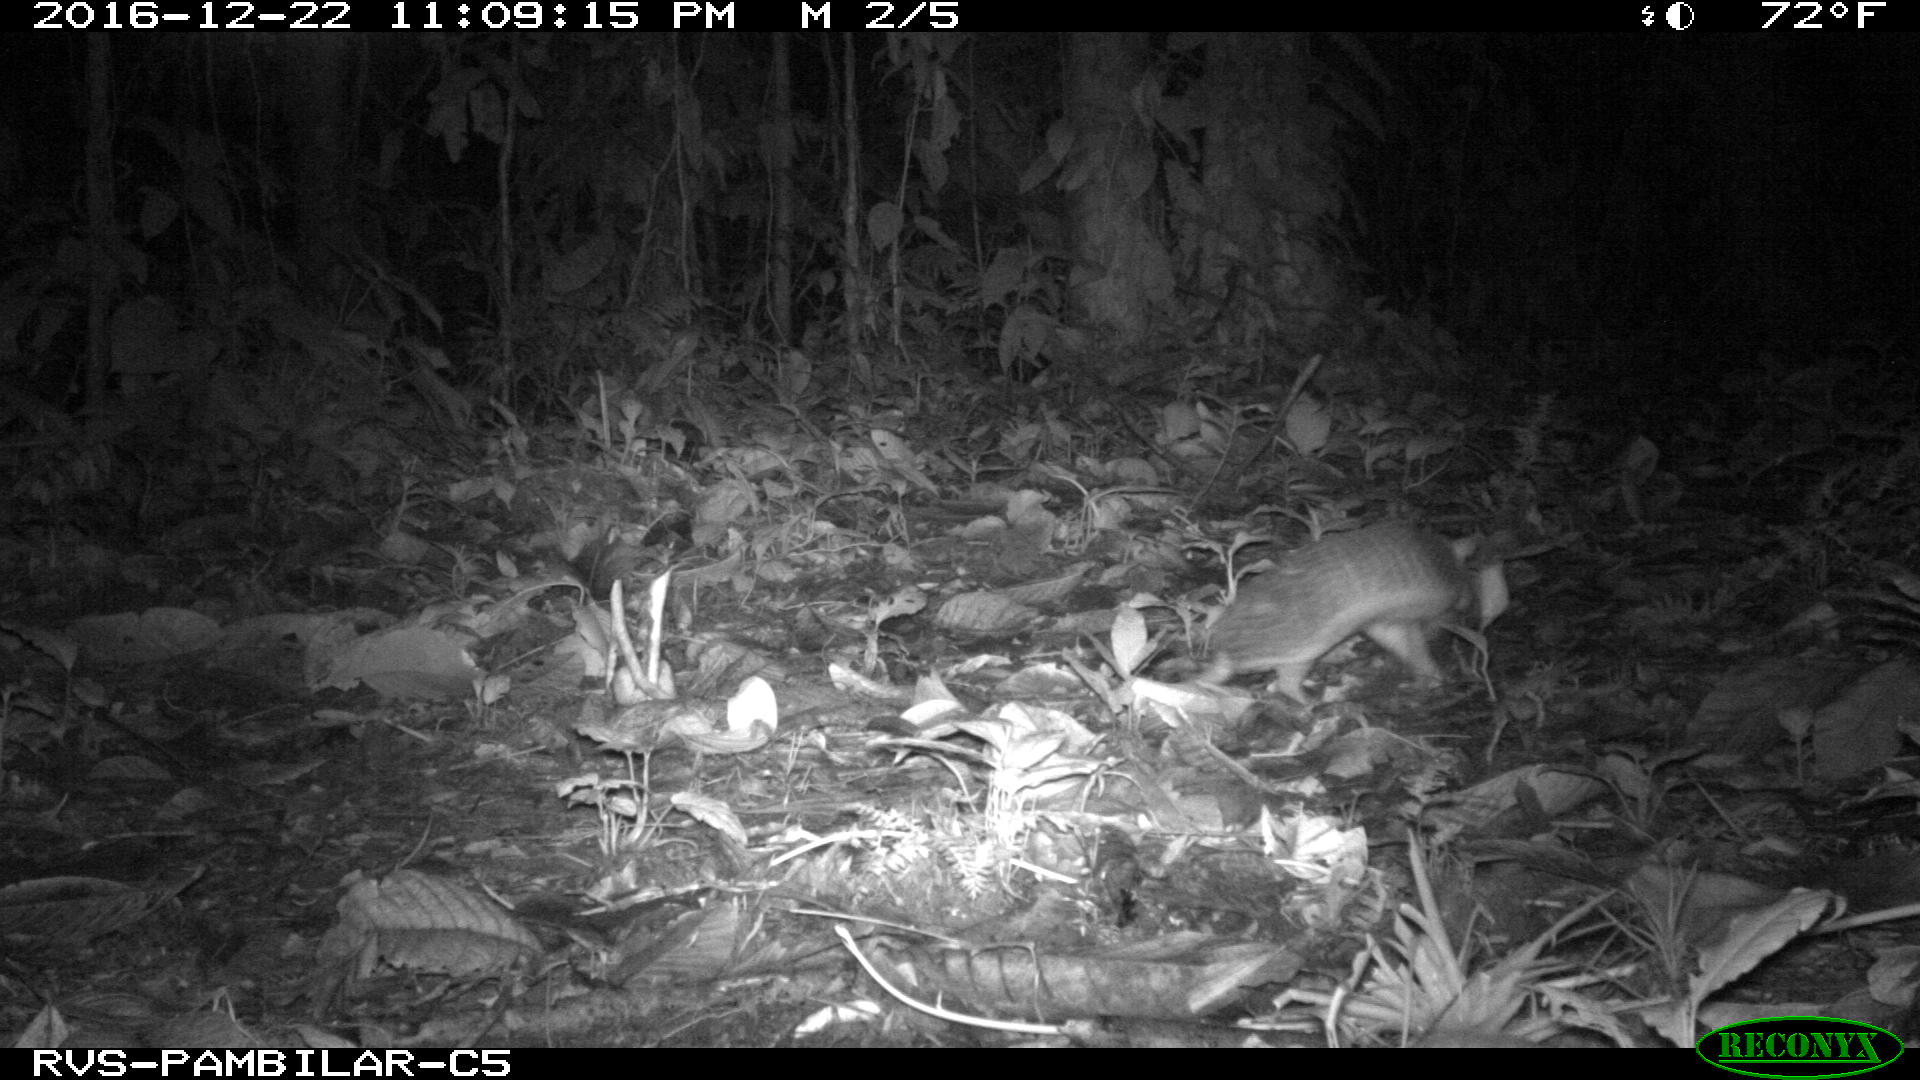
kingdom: Animalia
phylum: Chordata
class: Mammalia
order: Cingulata
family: Dasypodidae
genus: Cabassous
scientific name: Cabassous centralis
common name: Northern naked-tailed armadillo
